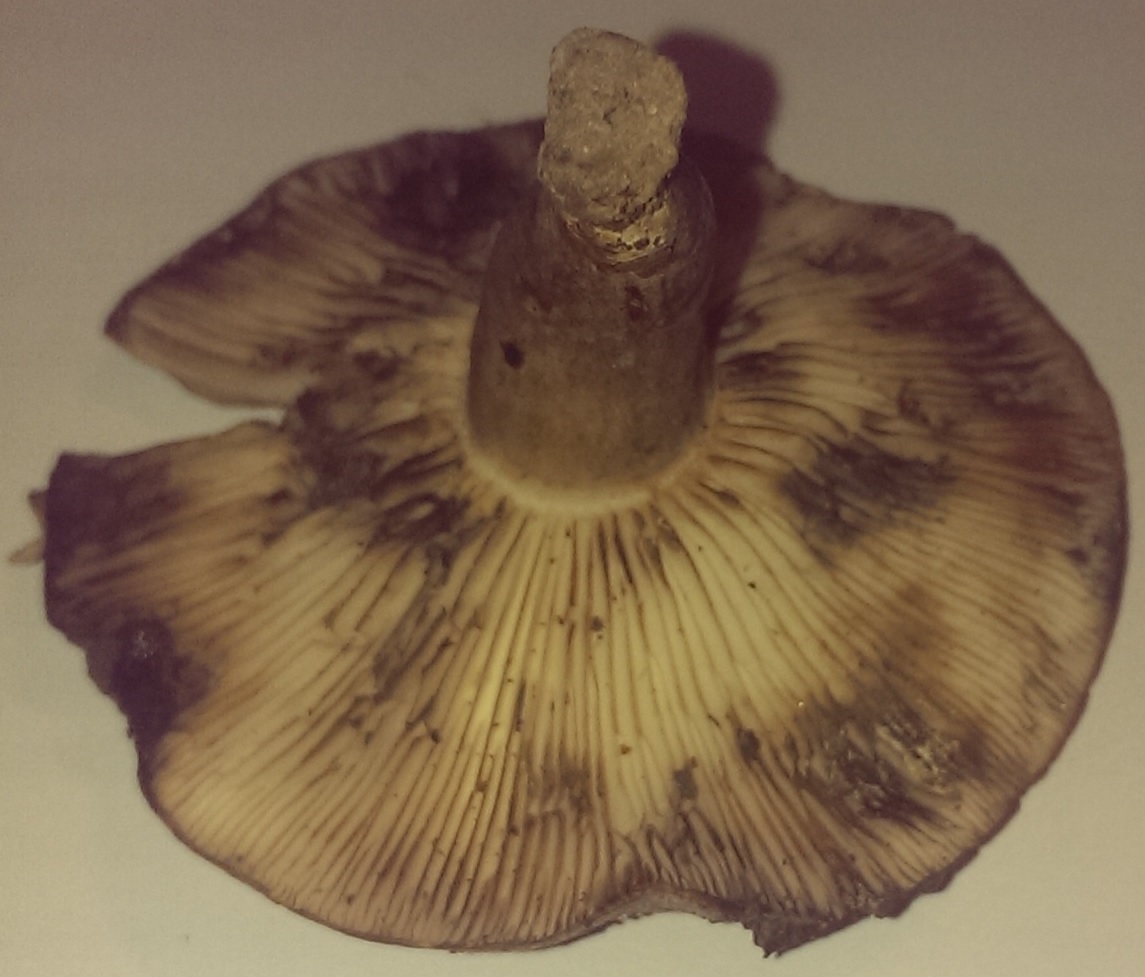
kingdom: Fungi
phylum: Basidiomycota
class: Agaricomycetes
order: Russulales
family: Russulaceae
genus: Lactarius
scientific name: Lactarius blennius
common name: dråbeplettet mælkehat
